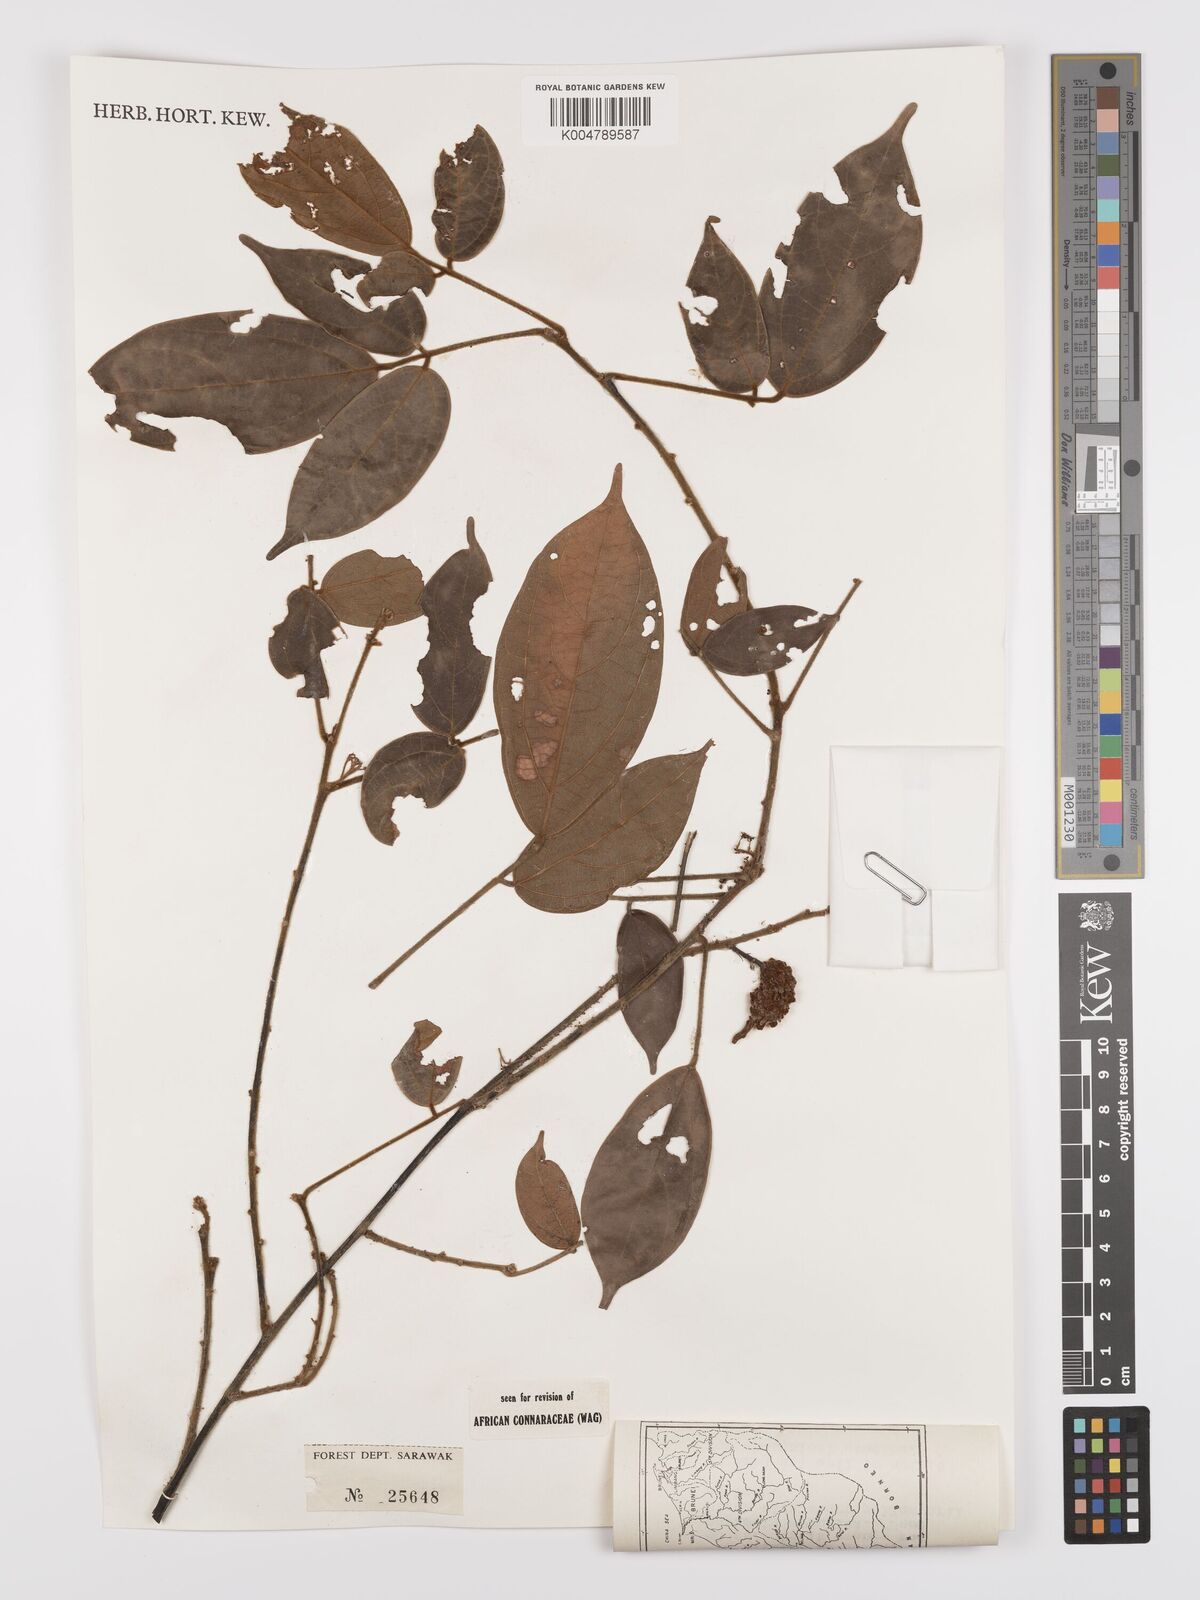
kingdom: Plantae
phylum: Tracheophyta
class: Magnoliopsida
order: Oxalidales
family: Connaraceae
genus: Agelaea
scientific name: Agelaea borneensis
